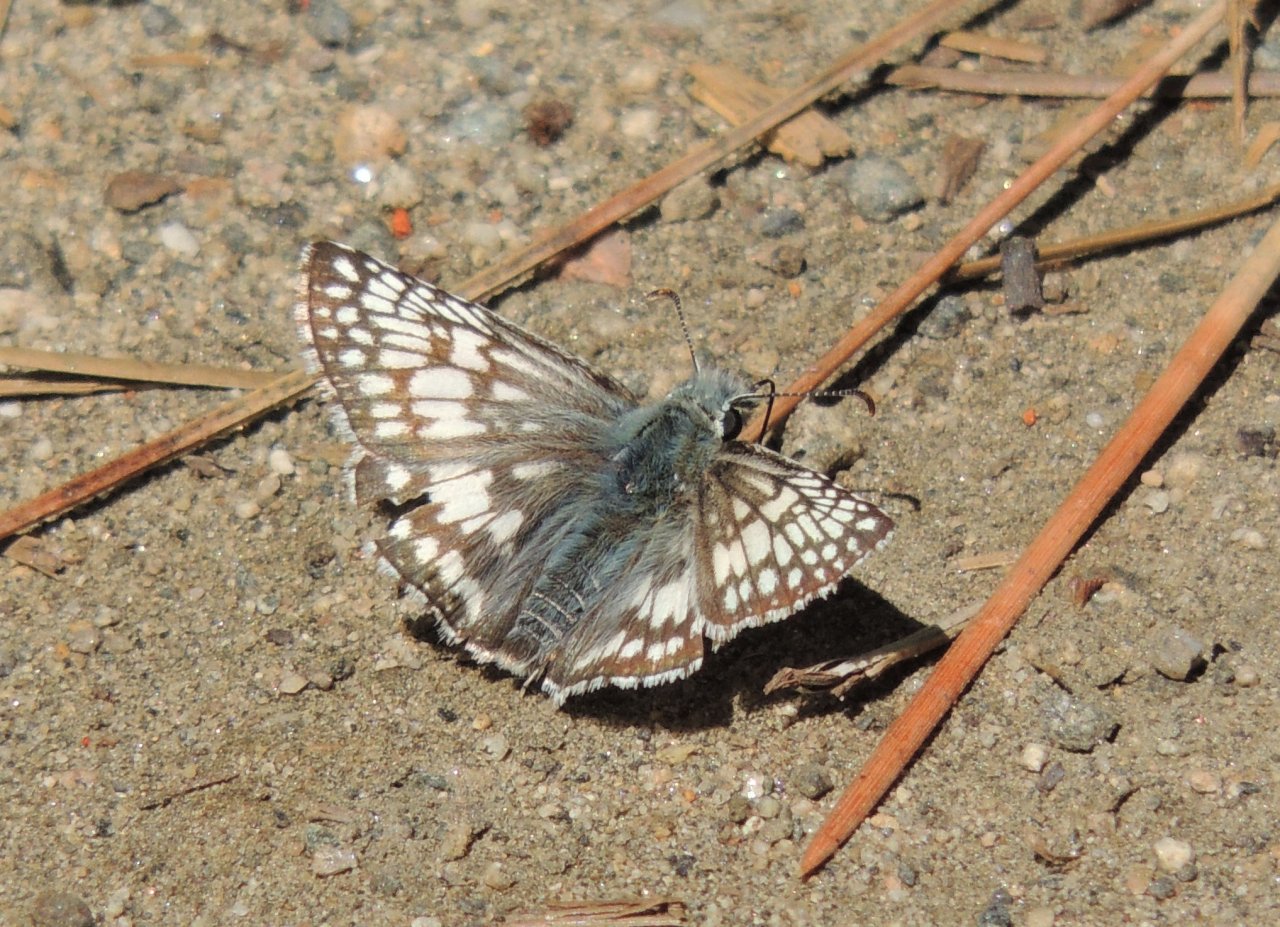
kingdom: Animalia
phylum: Arthropoda
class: Insecta
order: Lepidoptera
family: Hesperiidae
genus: Pyrgus
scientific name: Pyrgus communis
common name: Common Checkered-Skipper
